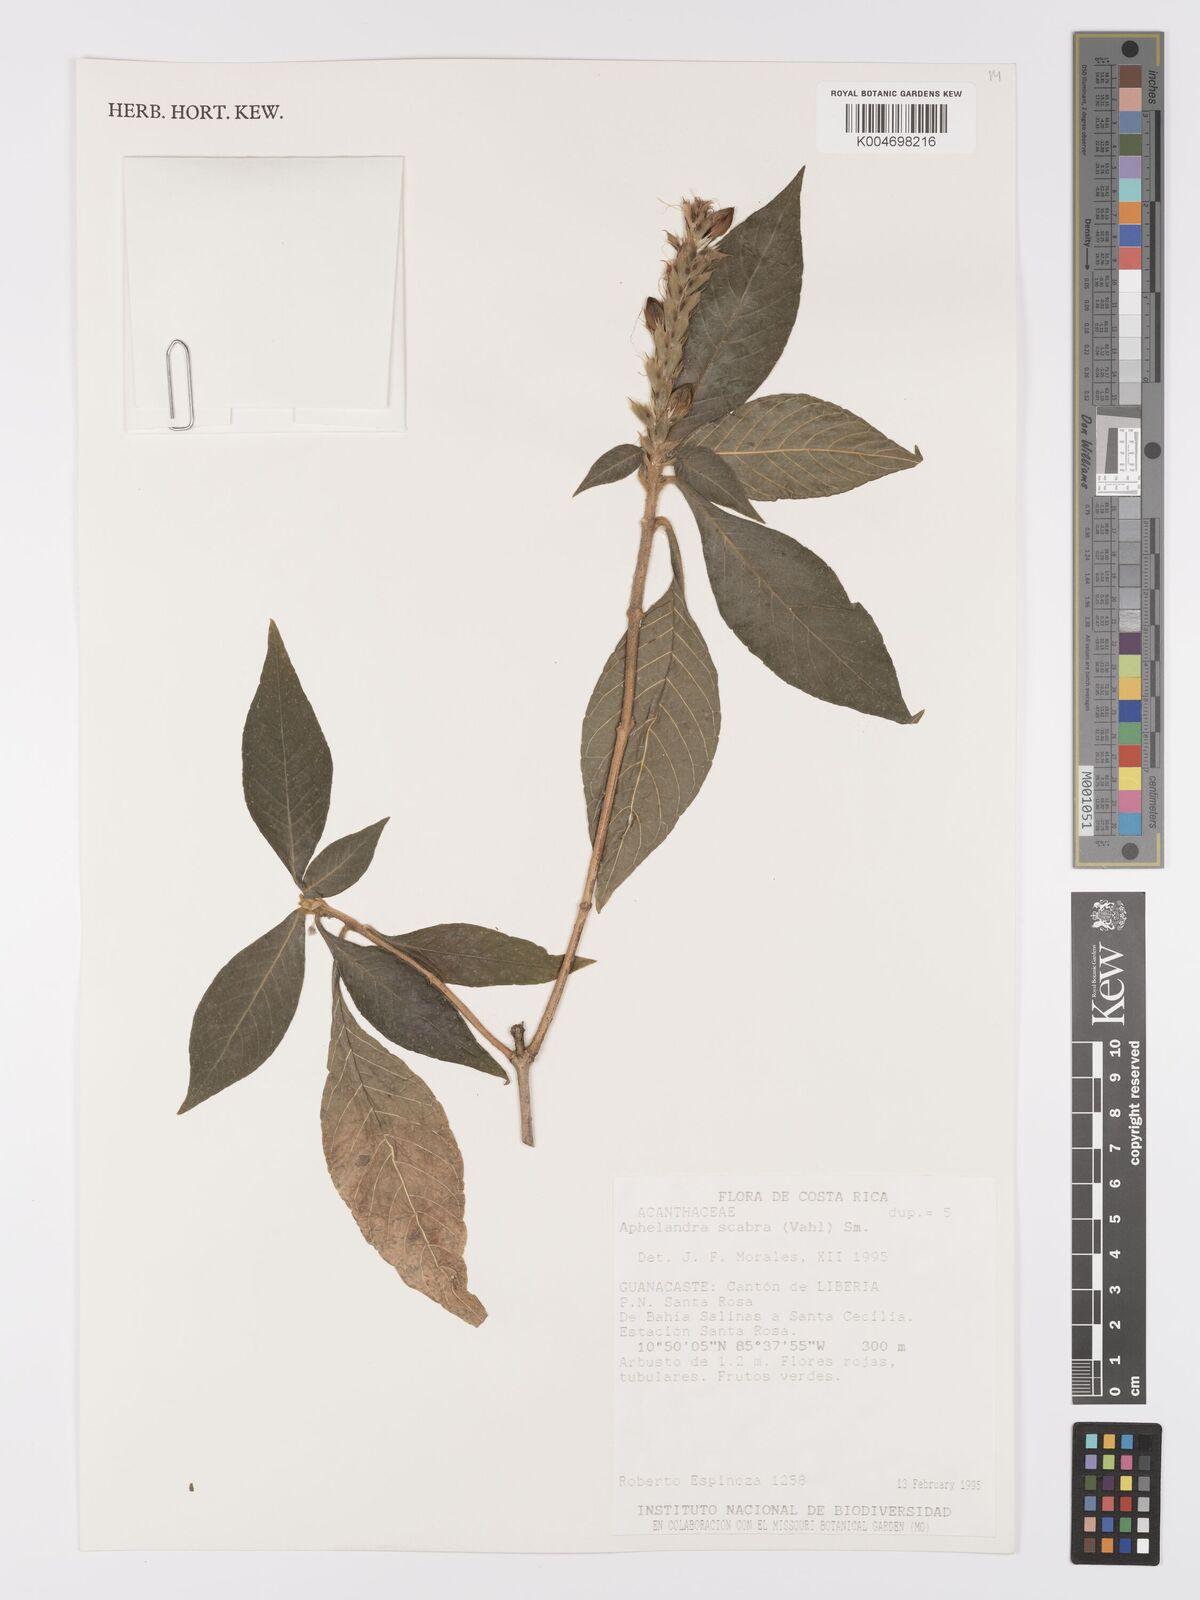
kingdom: Plantae
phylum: Tracheophyta
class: Magnoliopsida
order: Lamiales
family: Acanthaceae
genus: Aphelandra
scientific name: Aphelandra scabra
